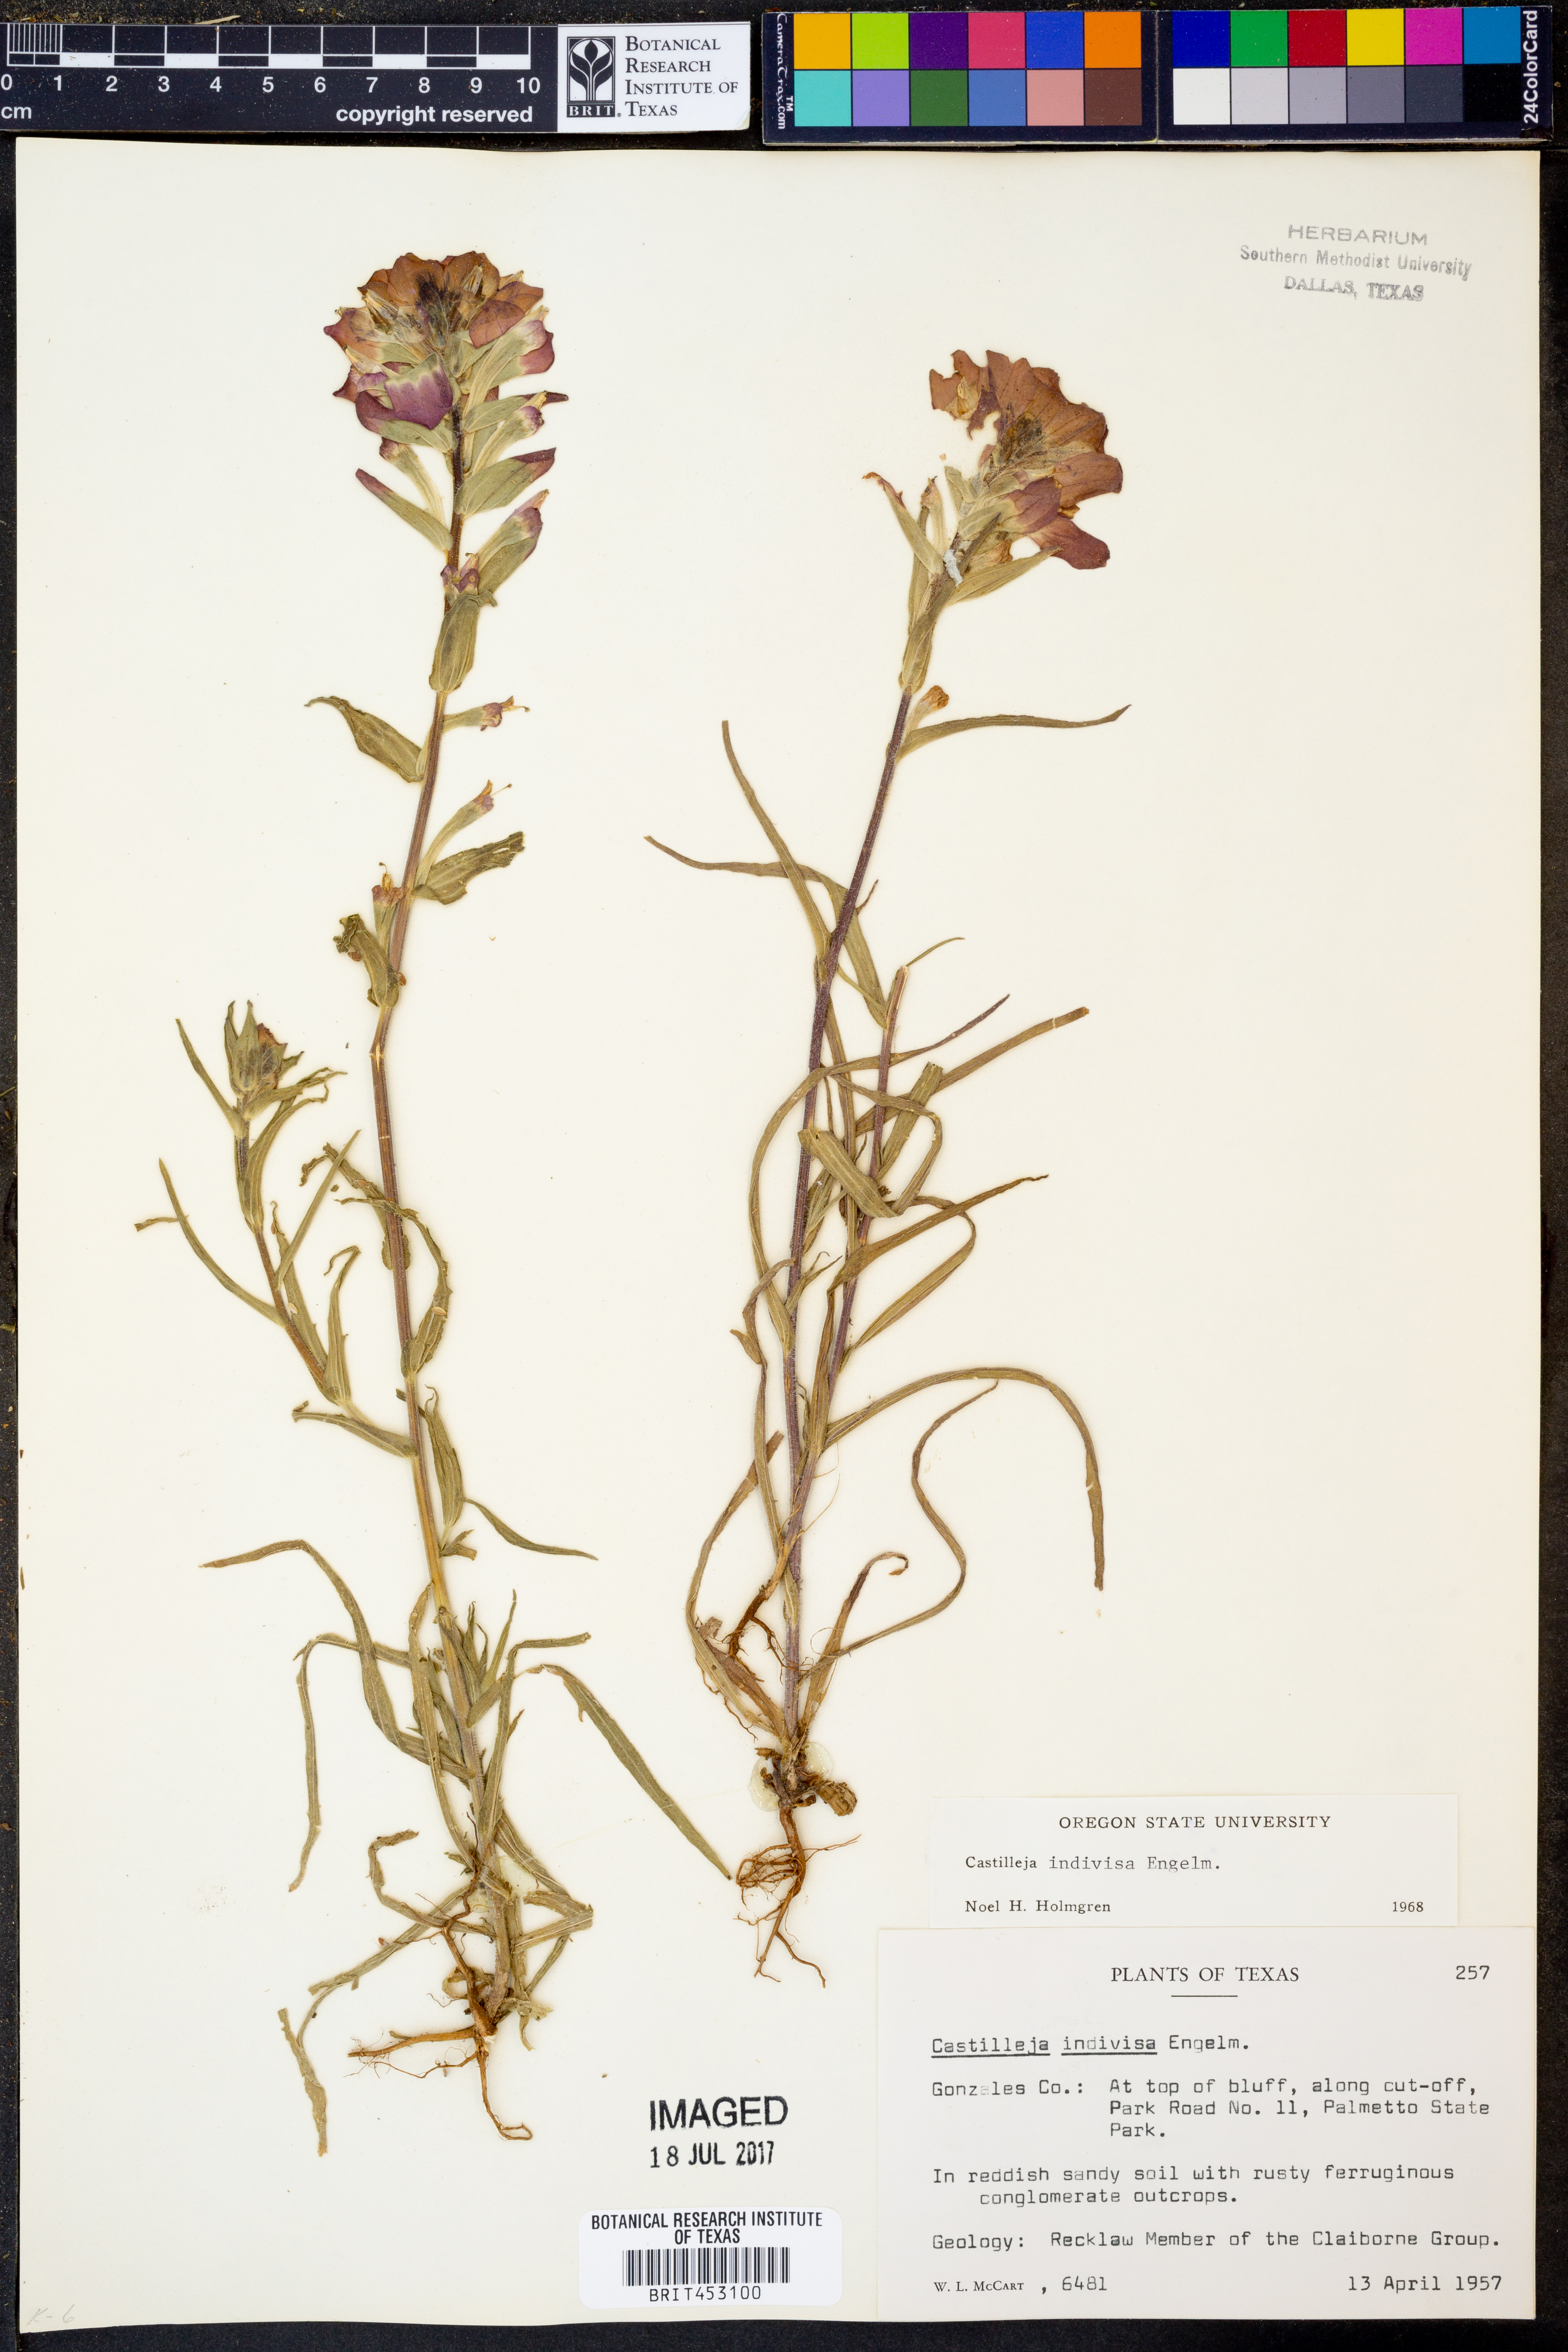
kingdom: Plantae
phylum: Tracheophyta
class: Magnoliopsida
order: Lamiales
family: Orobanchaceae
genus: Castilleja
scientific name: Castilleja indivisa
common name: Texas paintbrush
